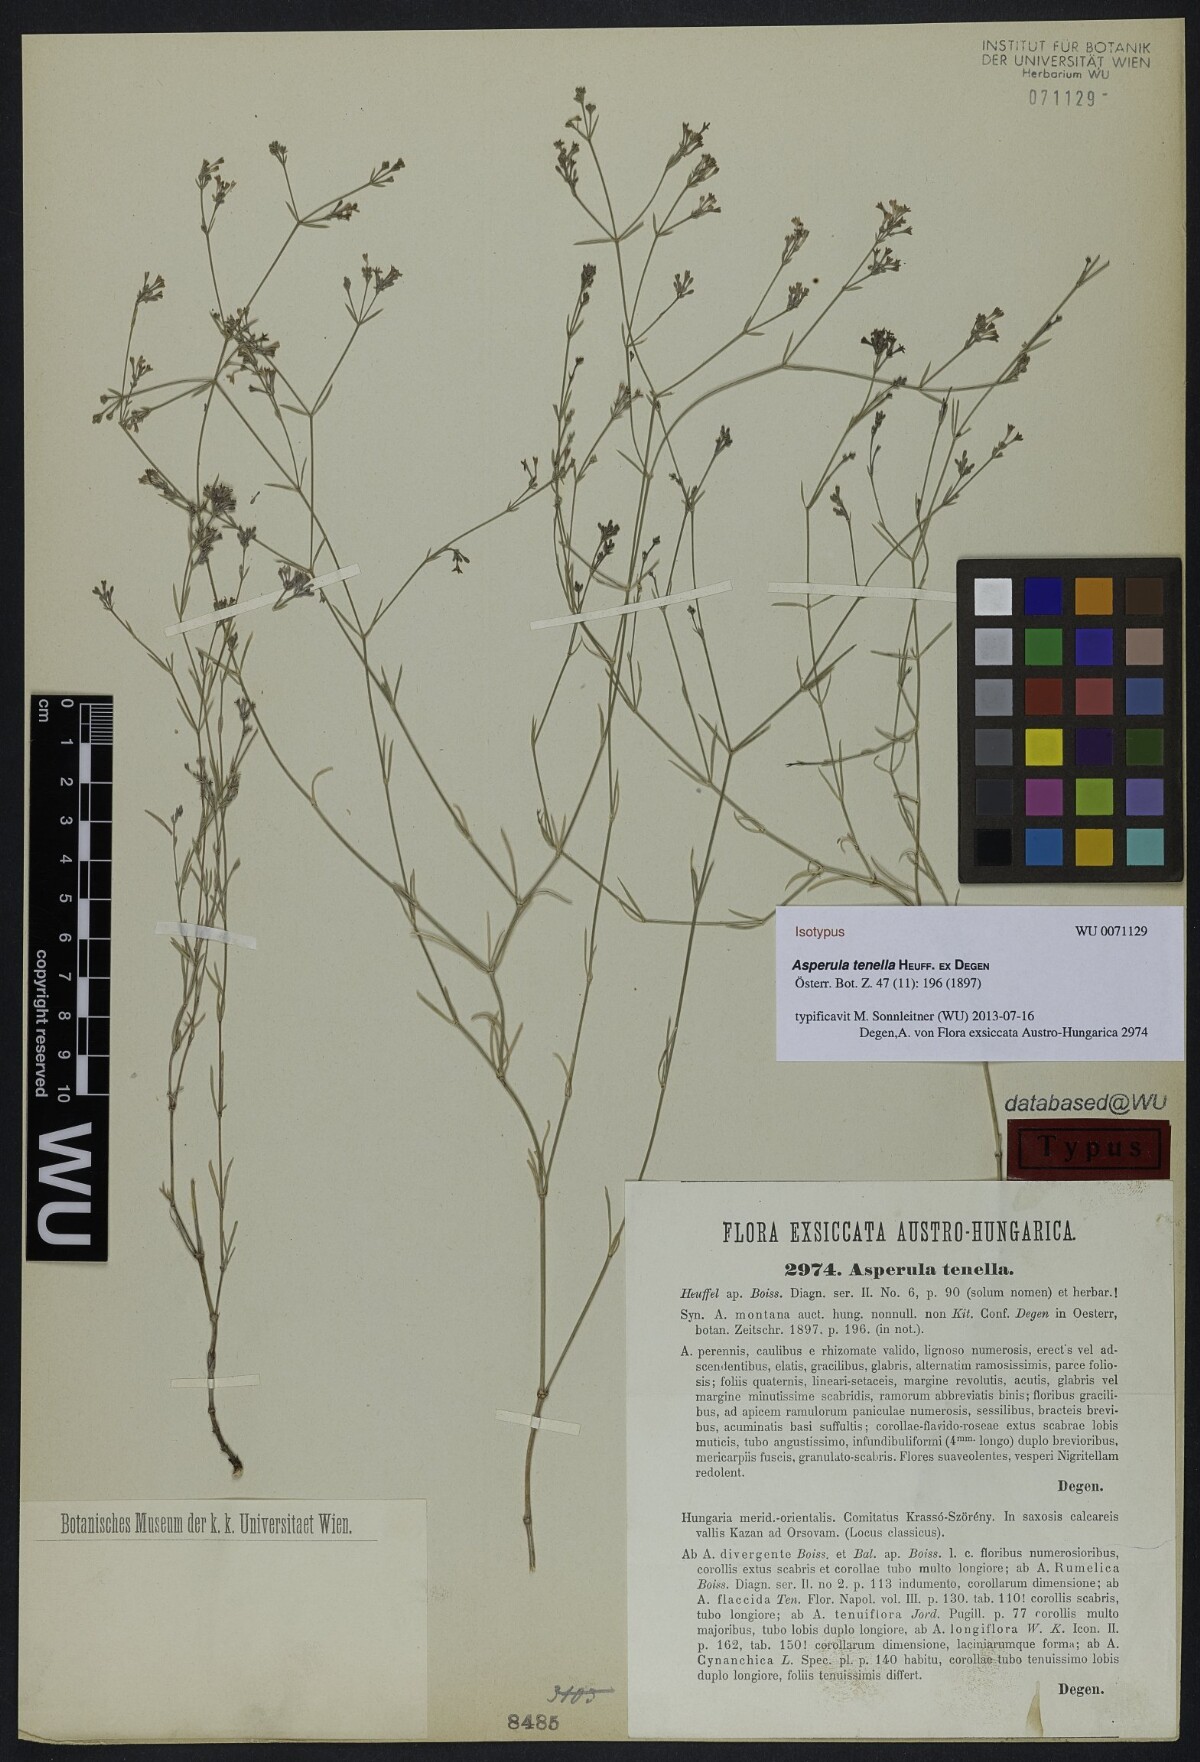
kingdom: Plantae
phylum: Tracheophyta
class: Magnoliopsida
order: Gentianales
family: Rubiaceae
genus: Cynanchica
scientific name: Cynanchica tenella
